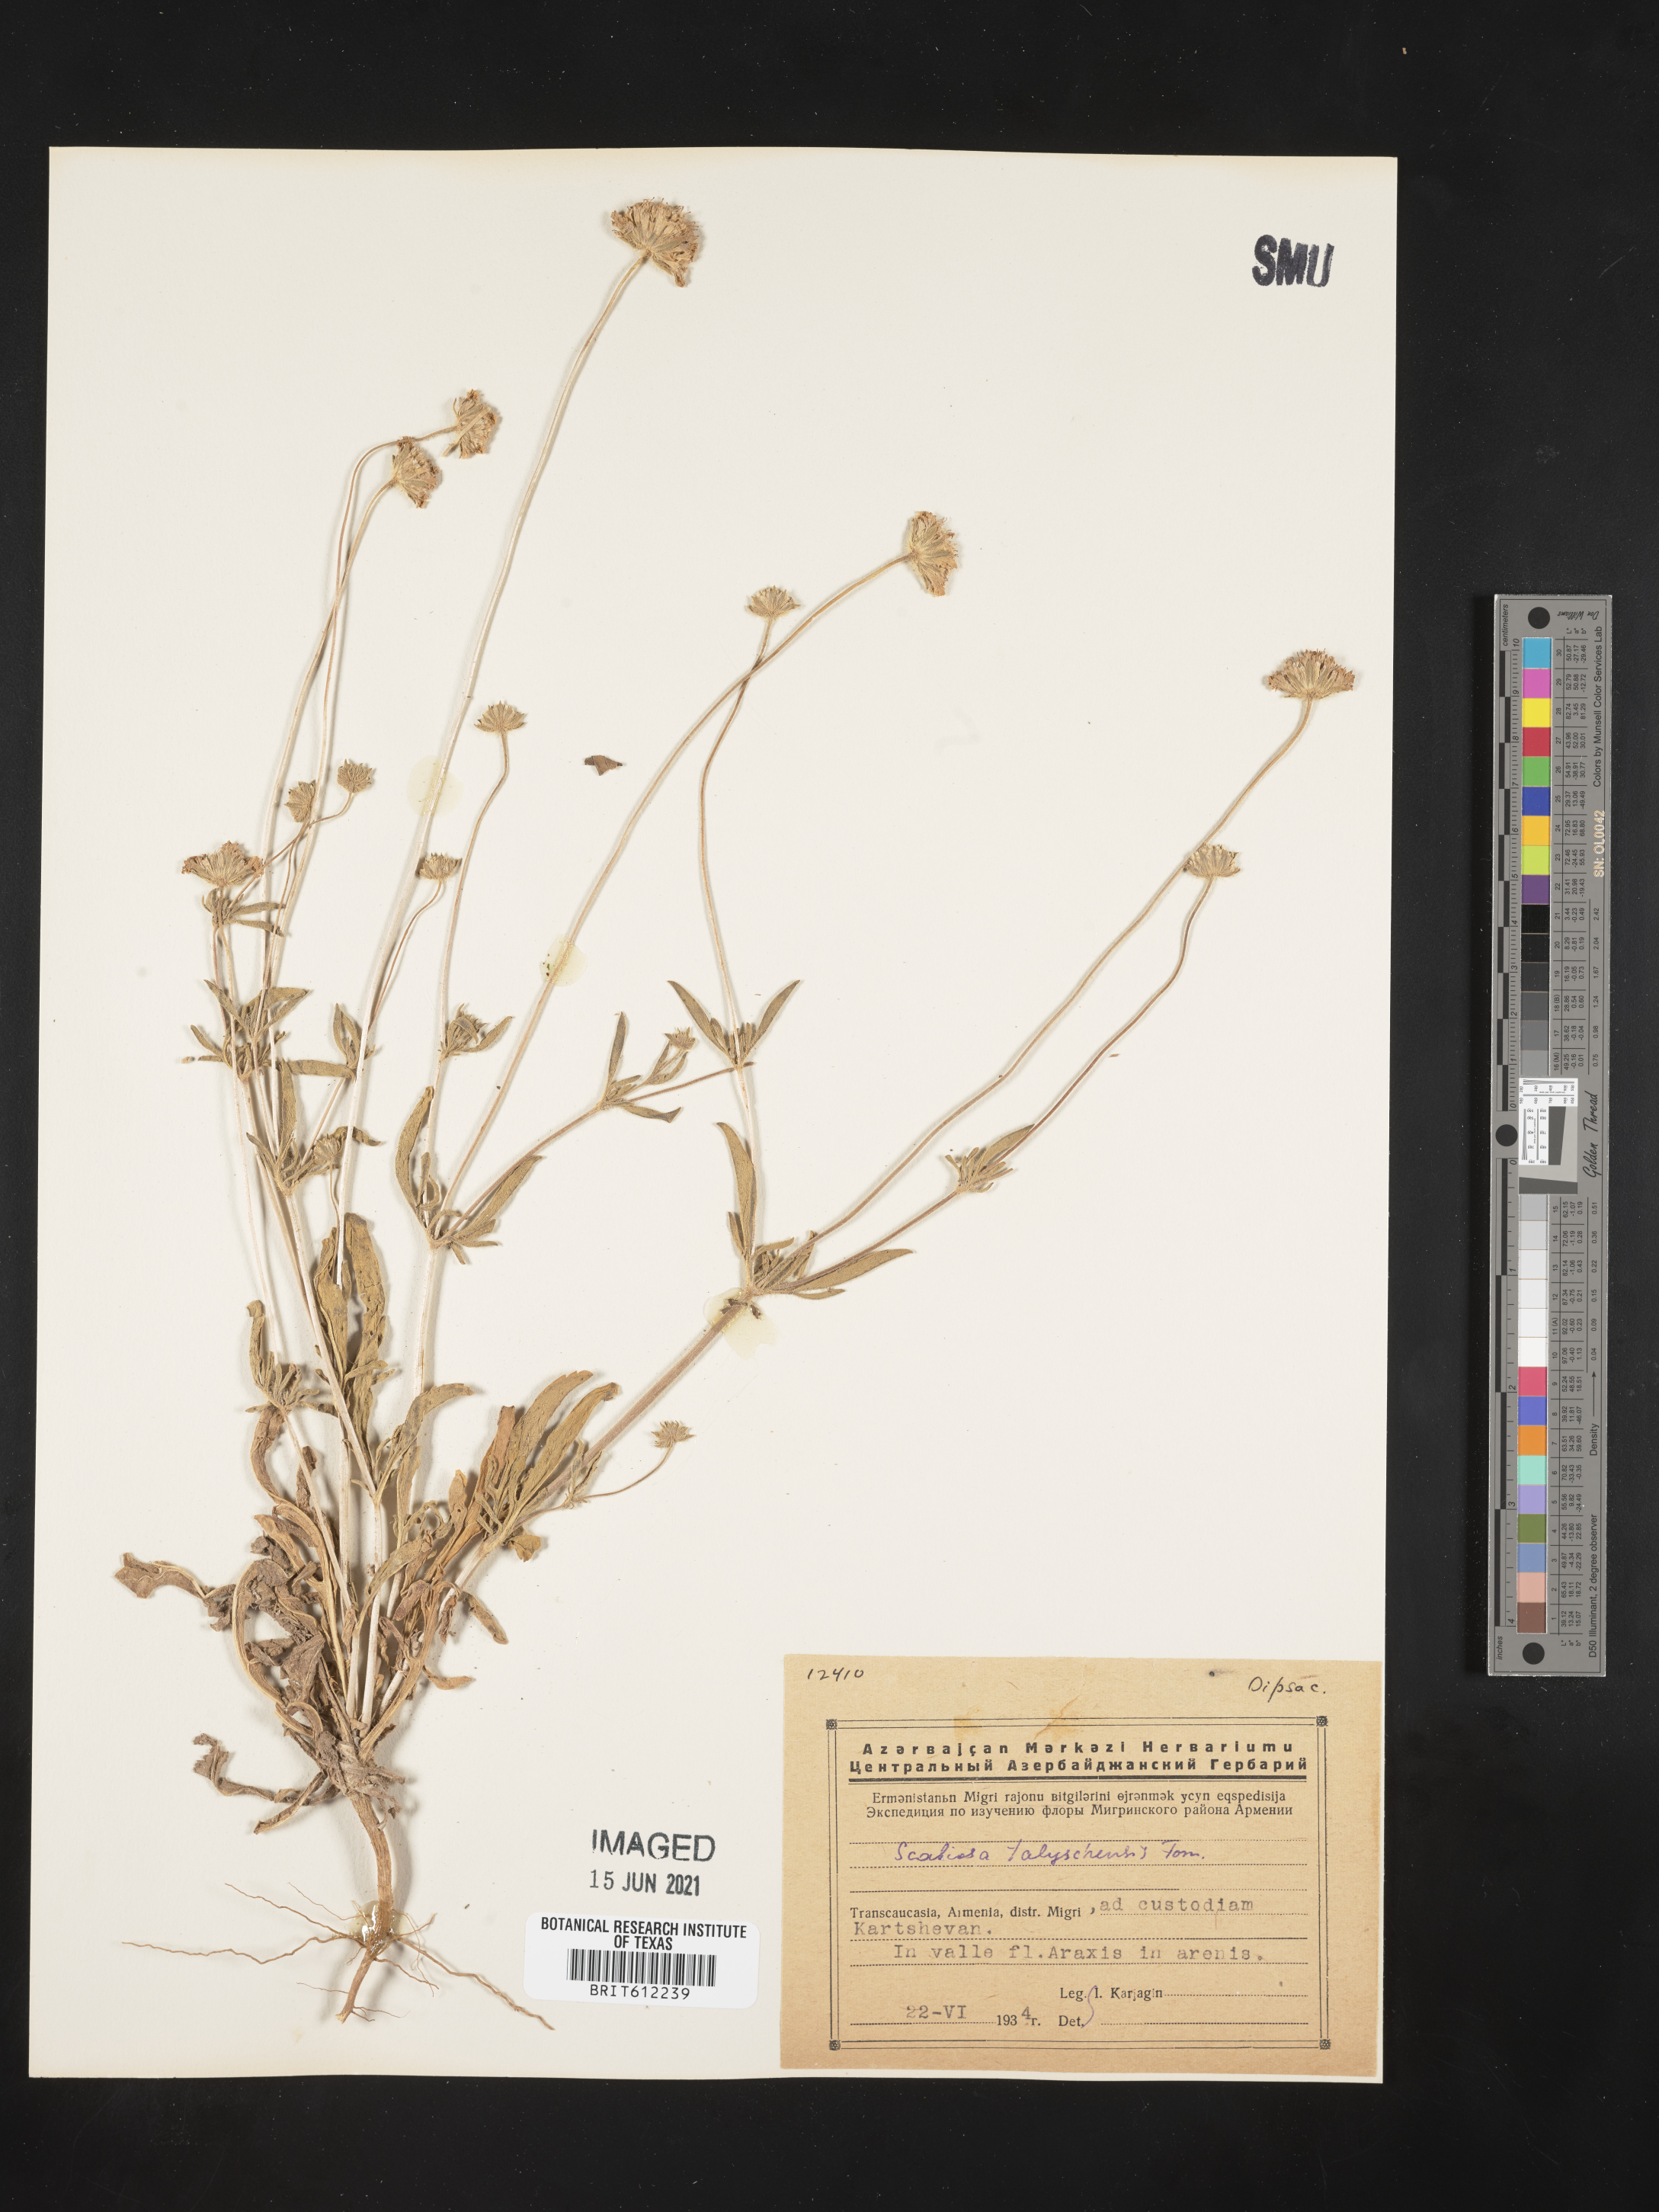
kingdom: Plantae
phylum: Tracheophyta
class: Magnoliopsida
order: Dipsacales
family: Caprifoliaceae
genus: Lomelosia
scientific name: Lomelosia persica
